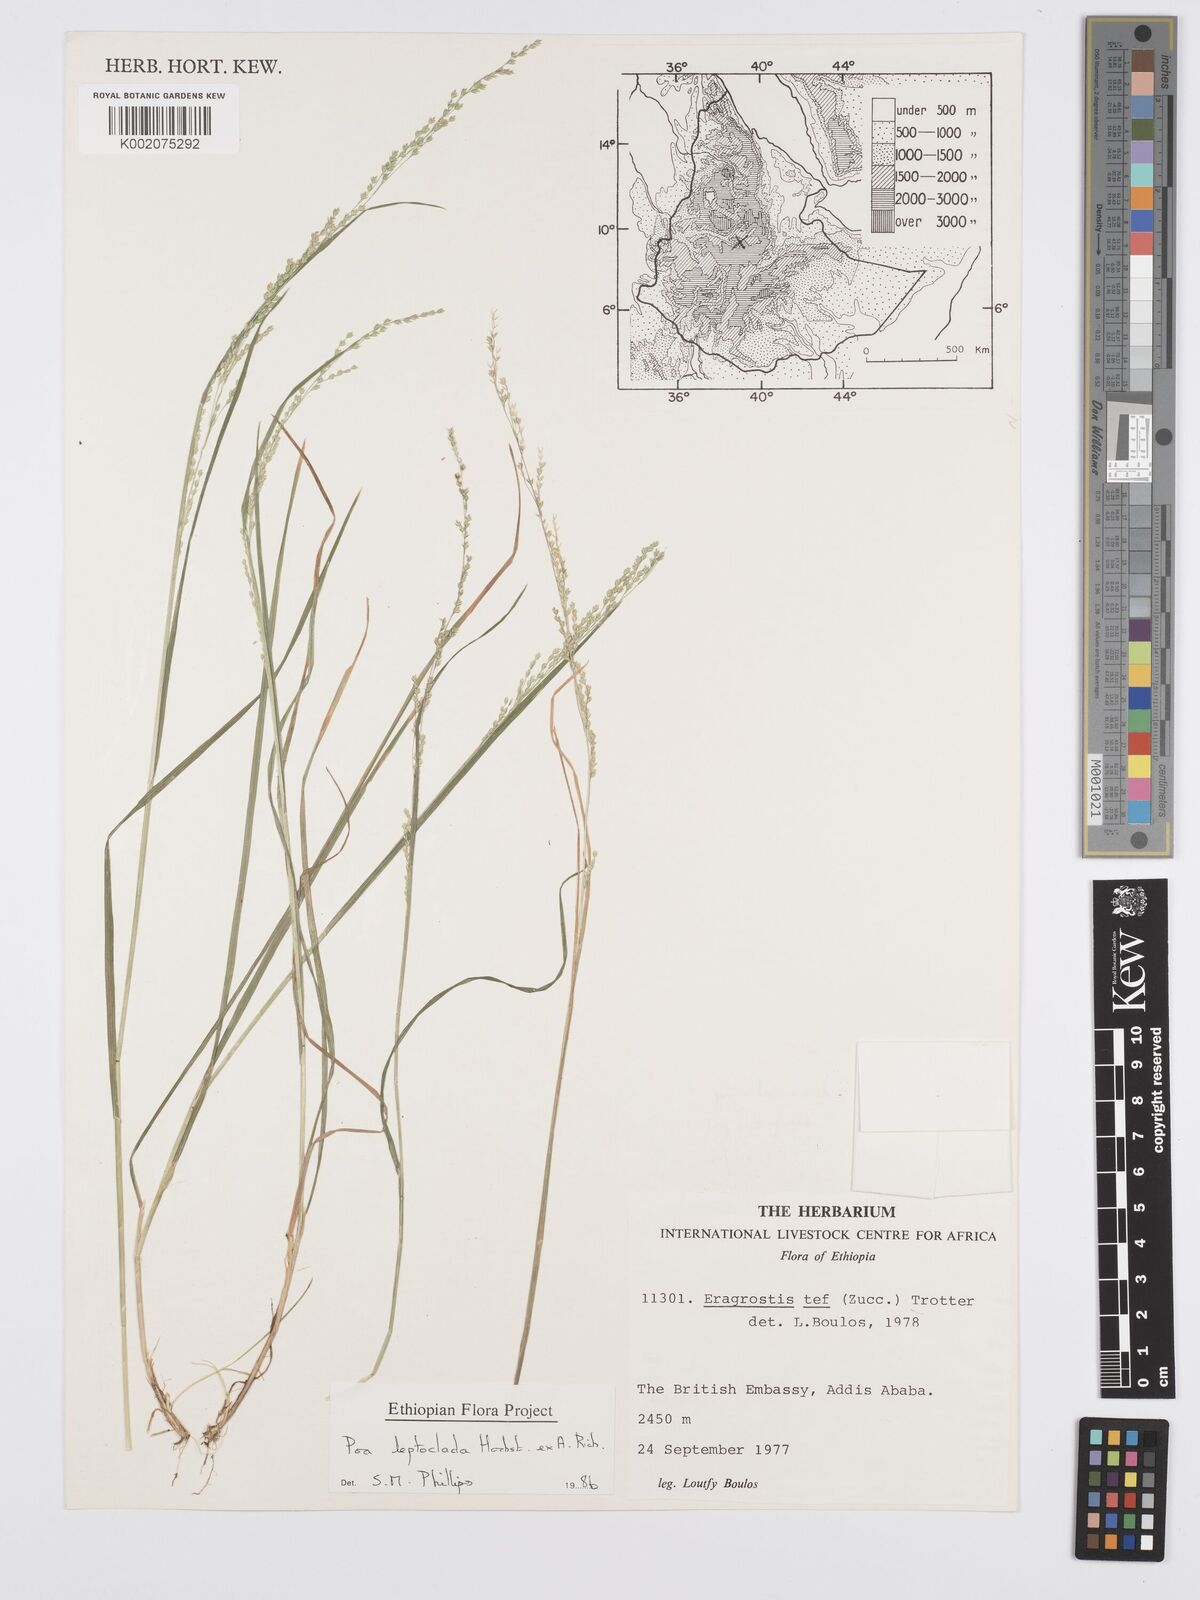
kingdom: Plantae
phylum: Tracheophyta
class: Liliopsida
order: Poales
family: Poaceae
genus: Poa
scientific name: Poa leptoclada
